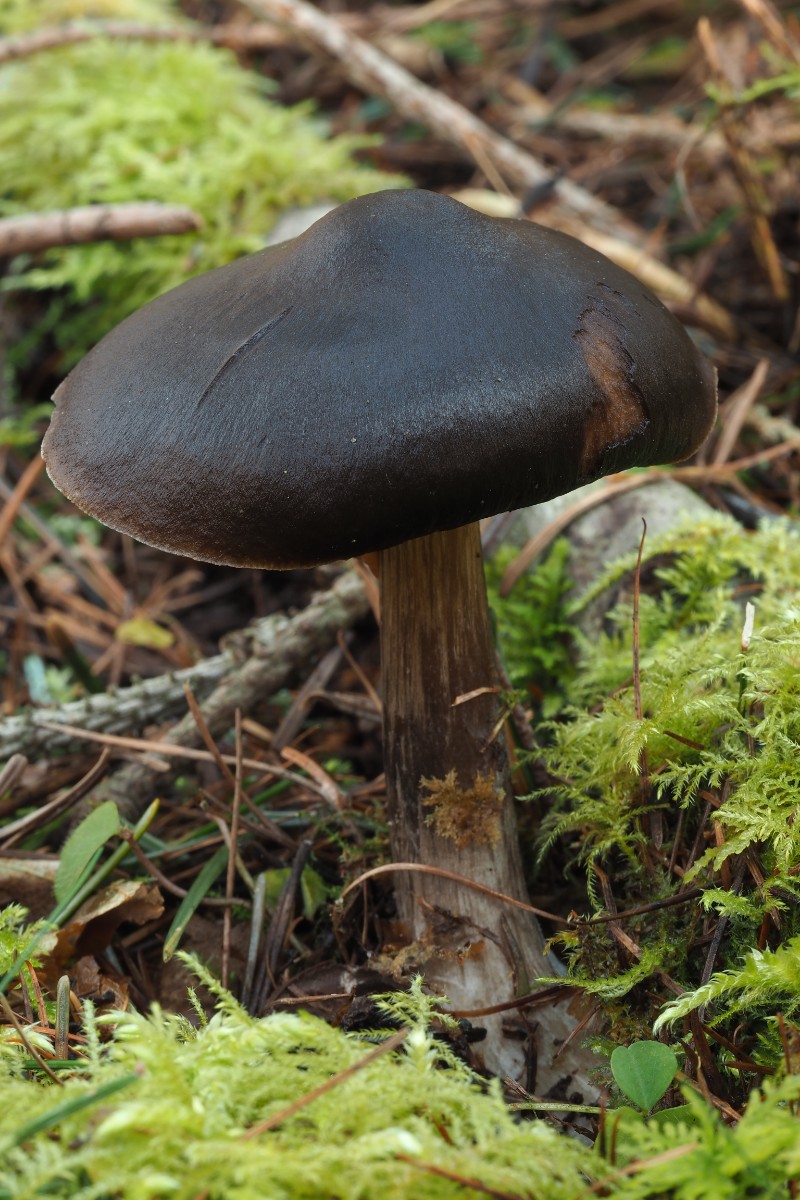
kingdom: Fungi
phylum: Basidiomycota
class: Agaricomycetes
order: Agaricales
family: Pluteaceae
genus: Pluteus
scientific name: Pluteus primus
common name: tidlig skærmhat
